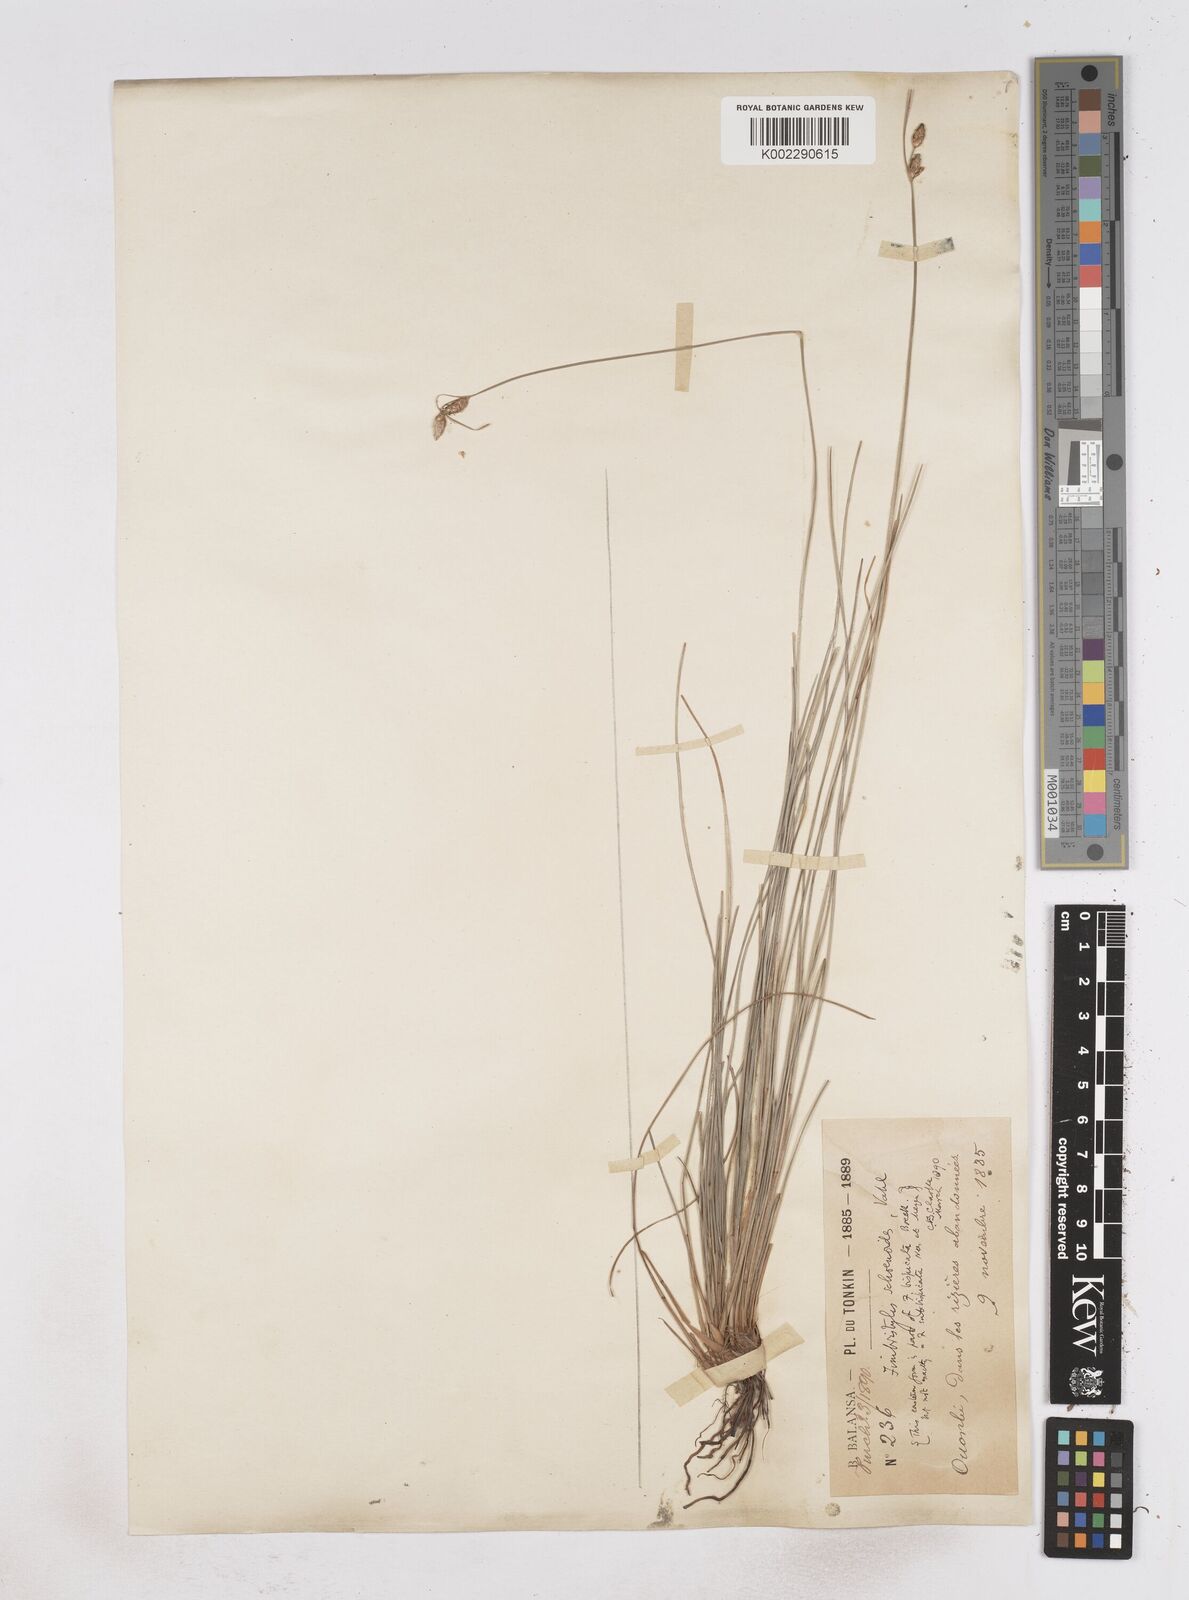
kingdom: Plantae
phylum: Tracheophyta
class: Liliopsida
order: Poales
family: Cyperaceae
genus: Fimbristylis
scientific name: Fimbristylis schoenoides
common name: Ditch fimbry
